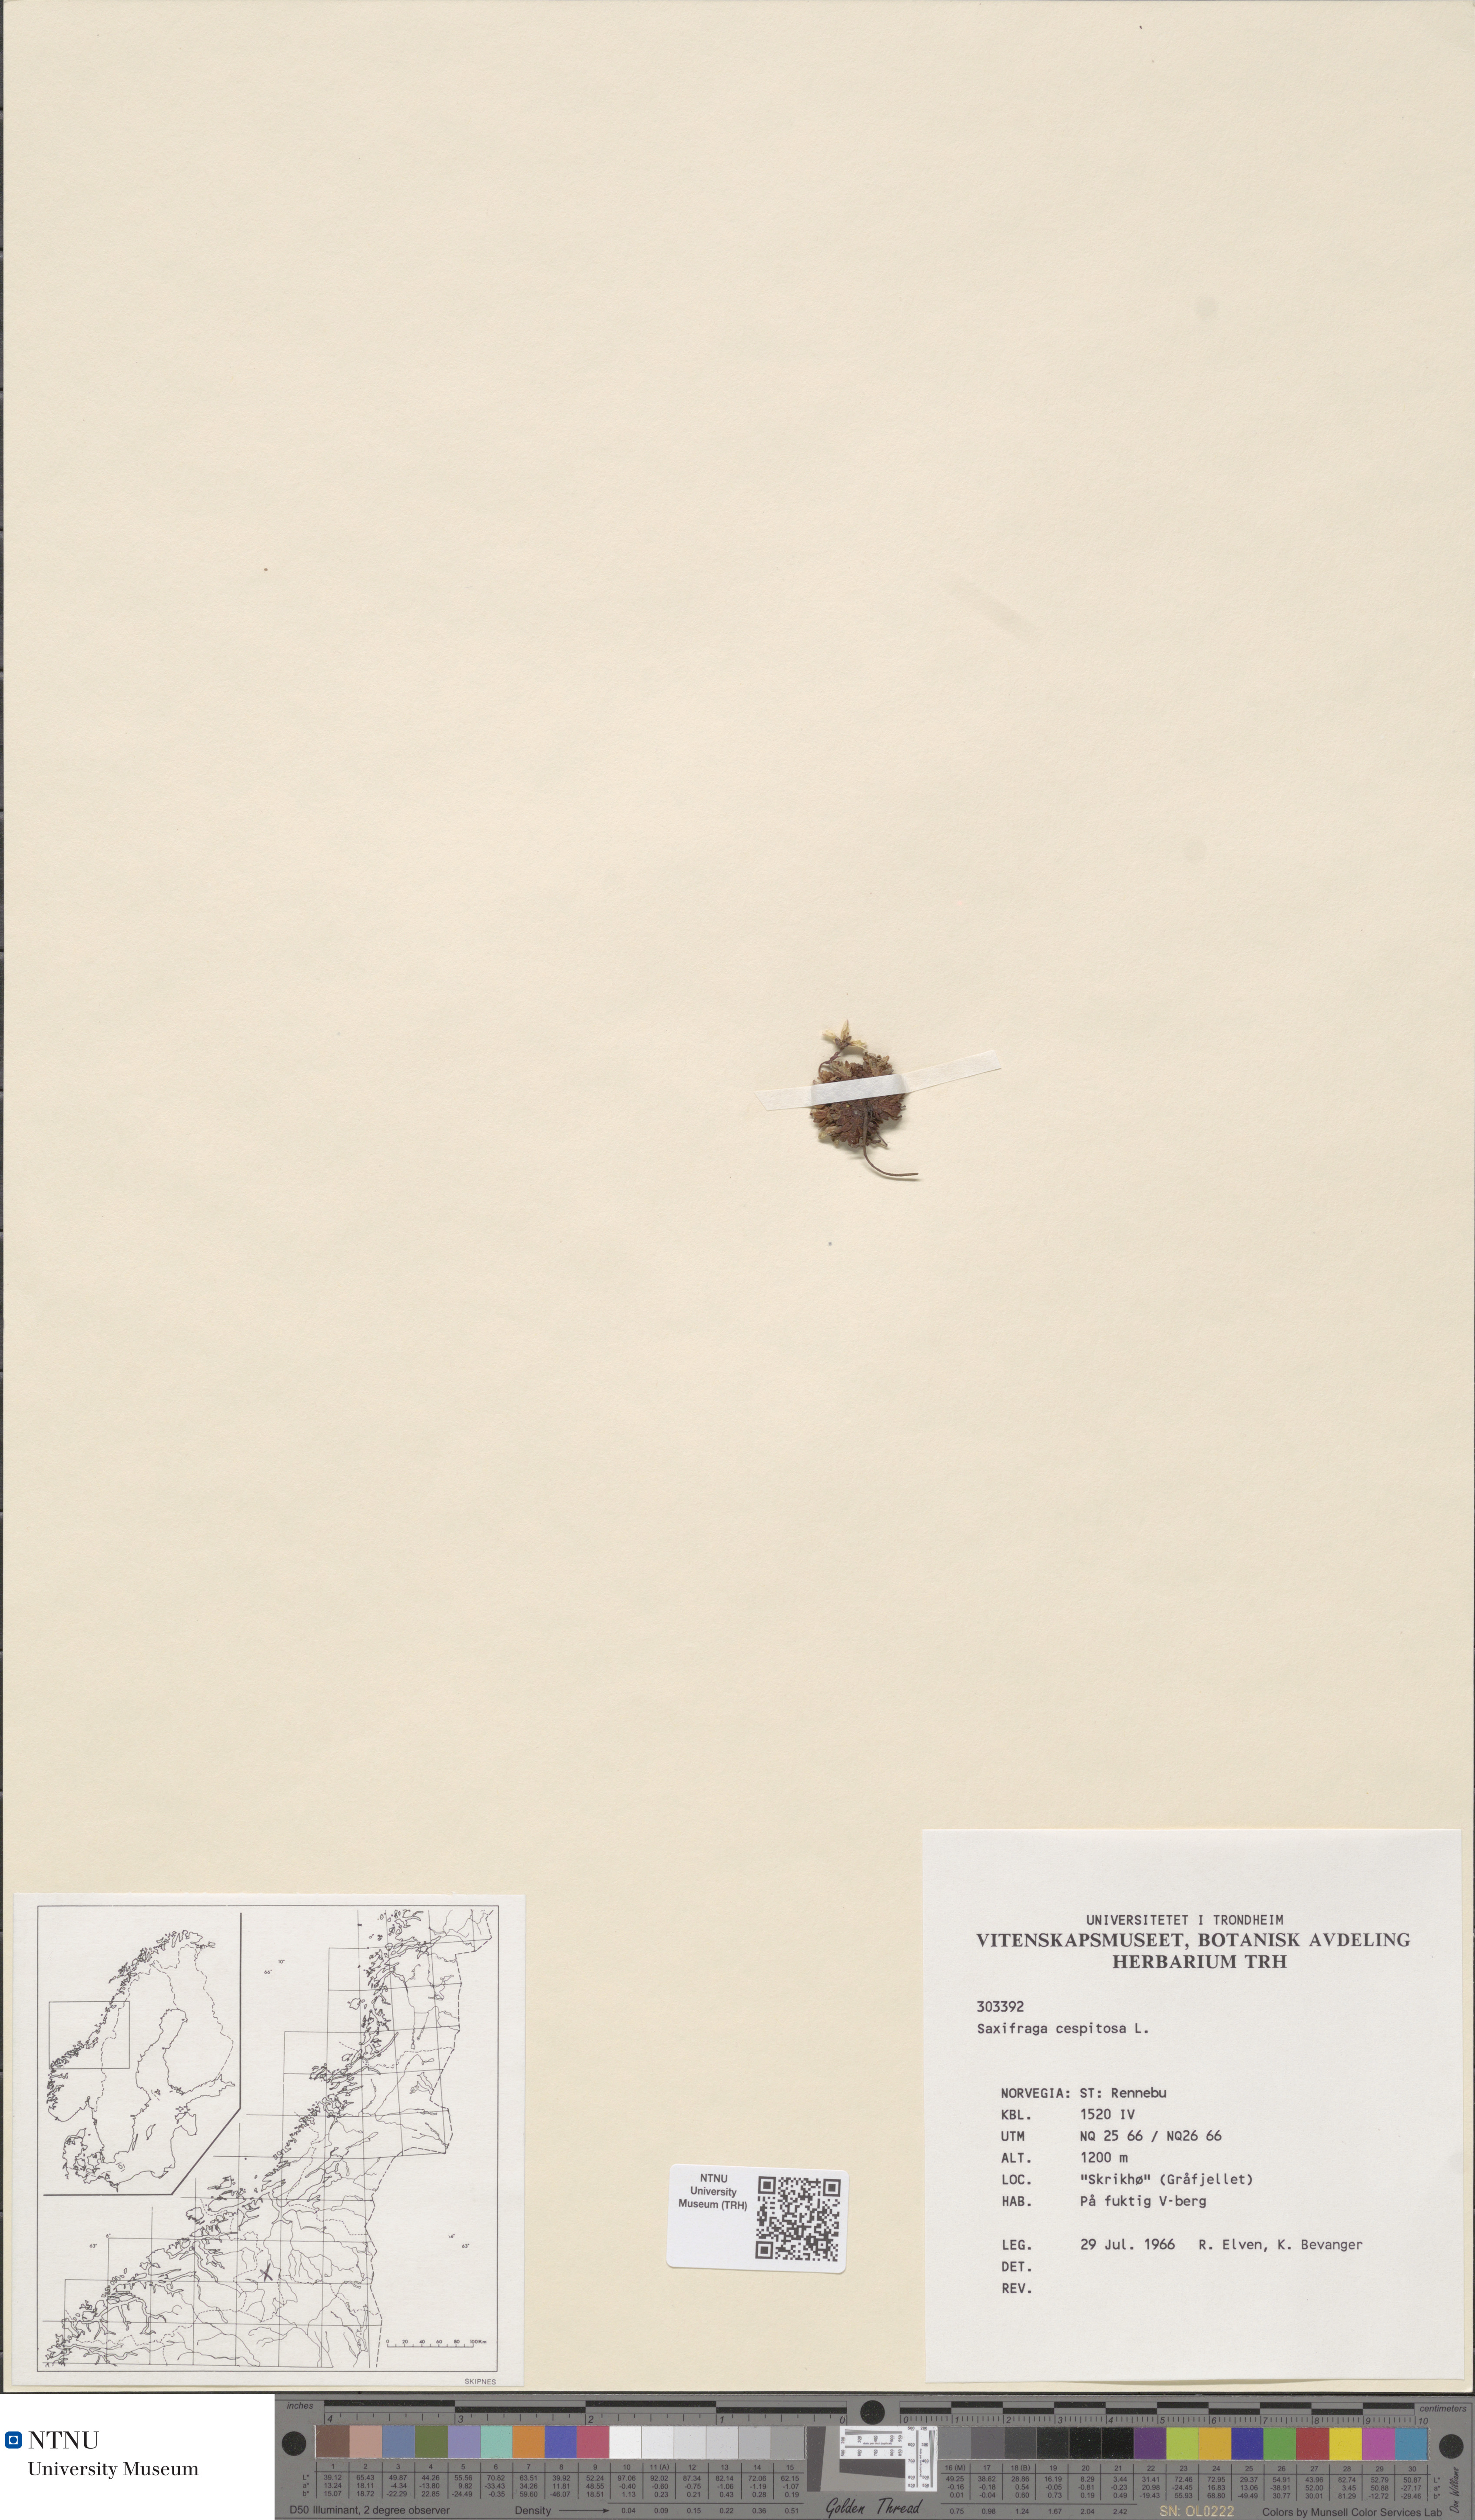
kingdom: Plantae
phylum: Tracheophyta
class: Magnoliopsida
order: Saxifragales
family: Saxifragaceae
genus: Saxifraga
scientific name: Saxifraga cespitosa
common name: Tufted saxifrage
